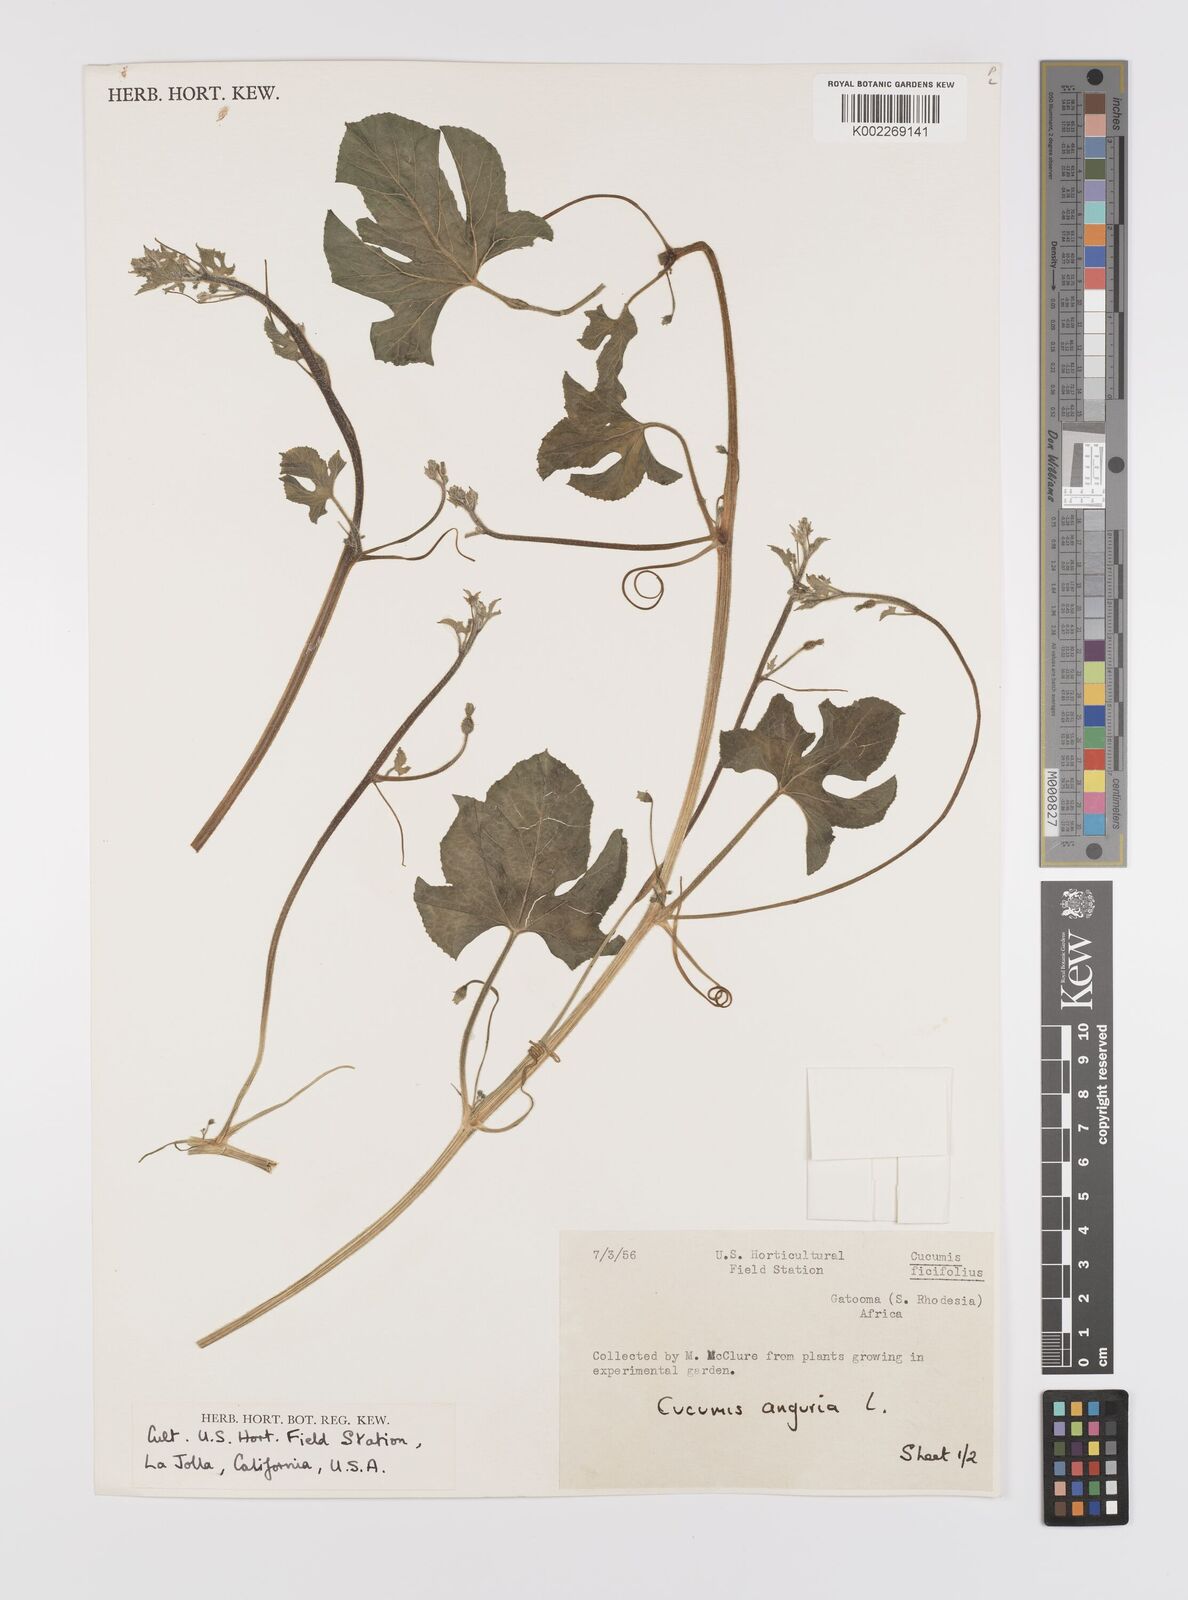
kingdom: Plantae
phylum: Tracheophyta
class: Magnoliopsida
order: Cucurbitales
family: Cucurbitaceae
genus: Cucumis
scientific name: Cucumis anguria
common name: West indian gherkin
